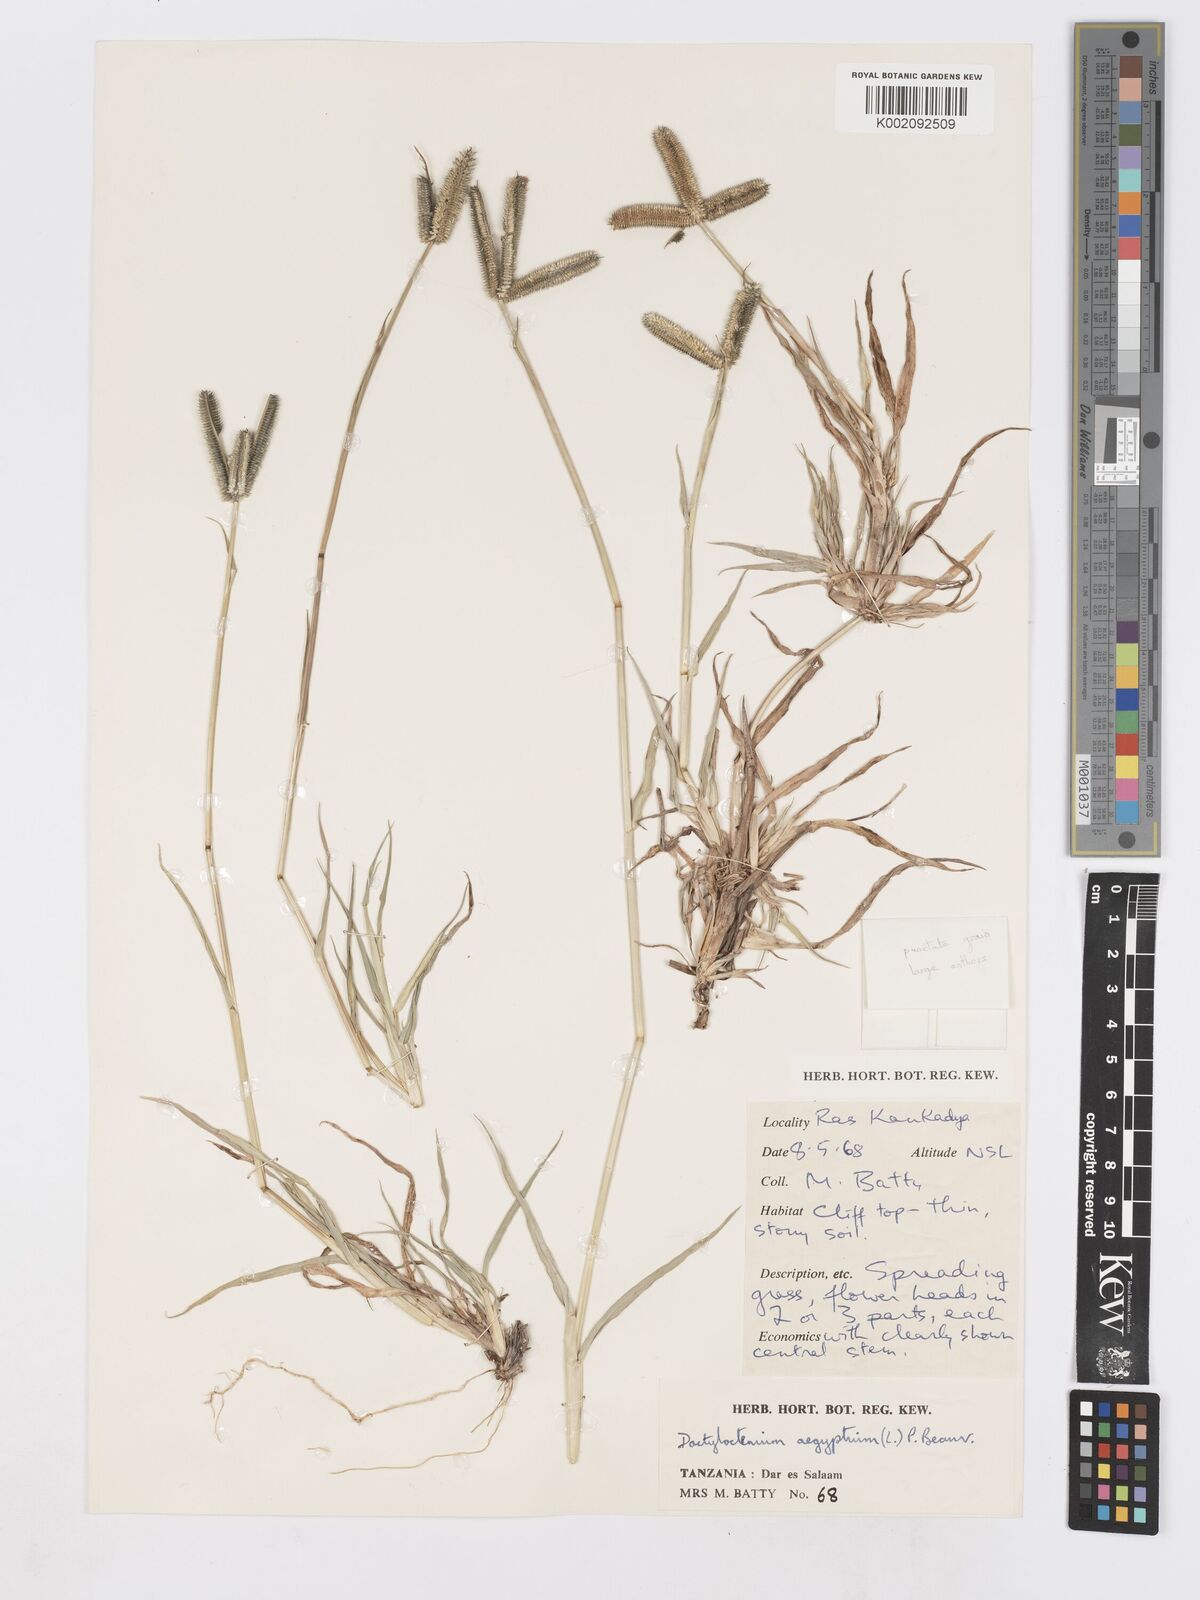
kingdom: Plantae
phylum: Tracheophyta
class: Liliopsida
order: Poales
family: Poaceae
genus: Dactyloctenium
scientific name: Dactyloctenium
